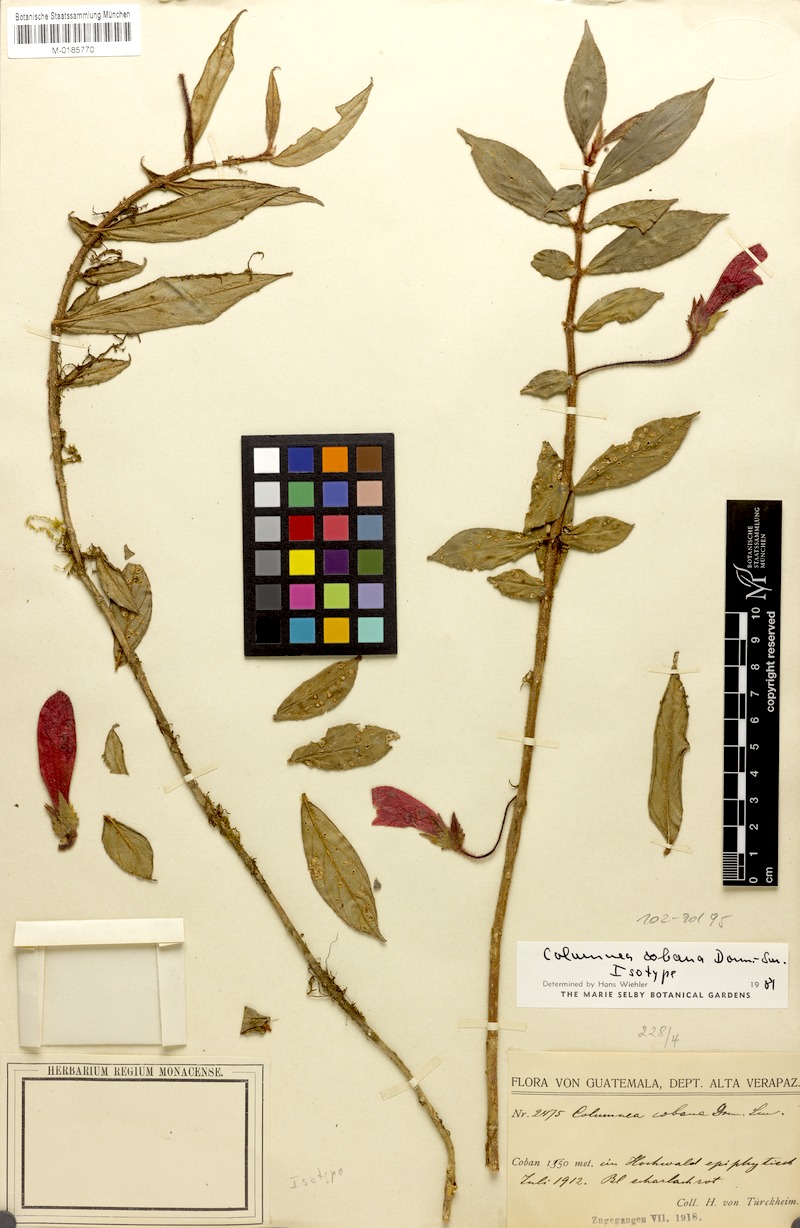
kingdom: Plantae
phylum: Tracheophyta
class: Magnoliopsida
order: Lamiales
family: Gesneriaceae
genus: Columnea
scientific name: Columnea cobana
